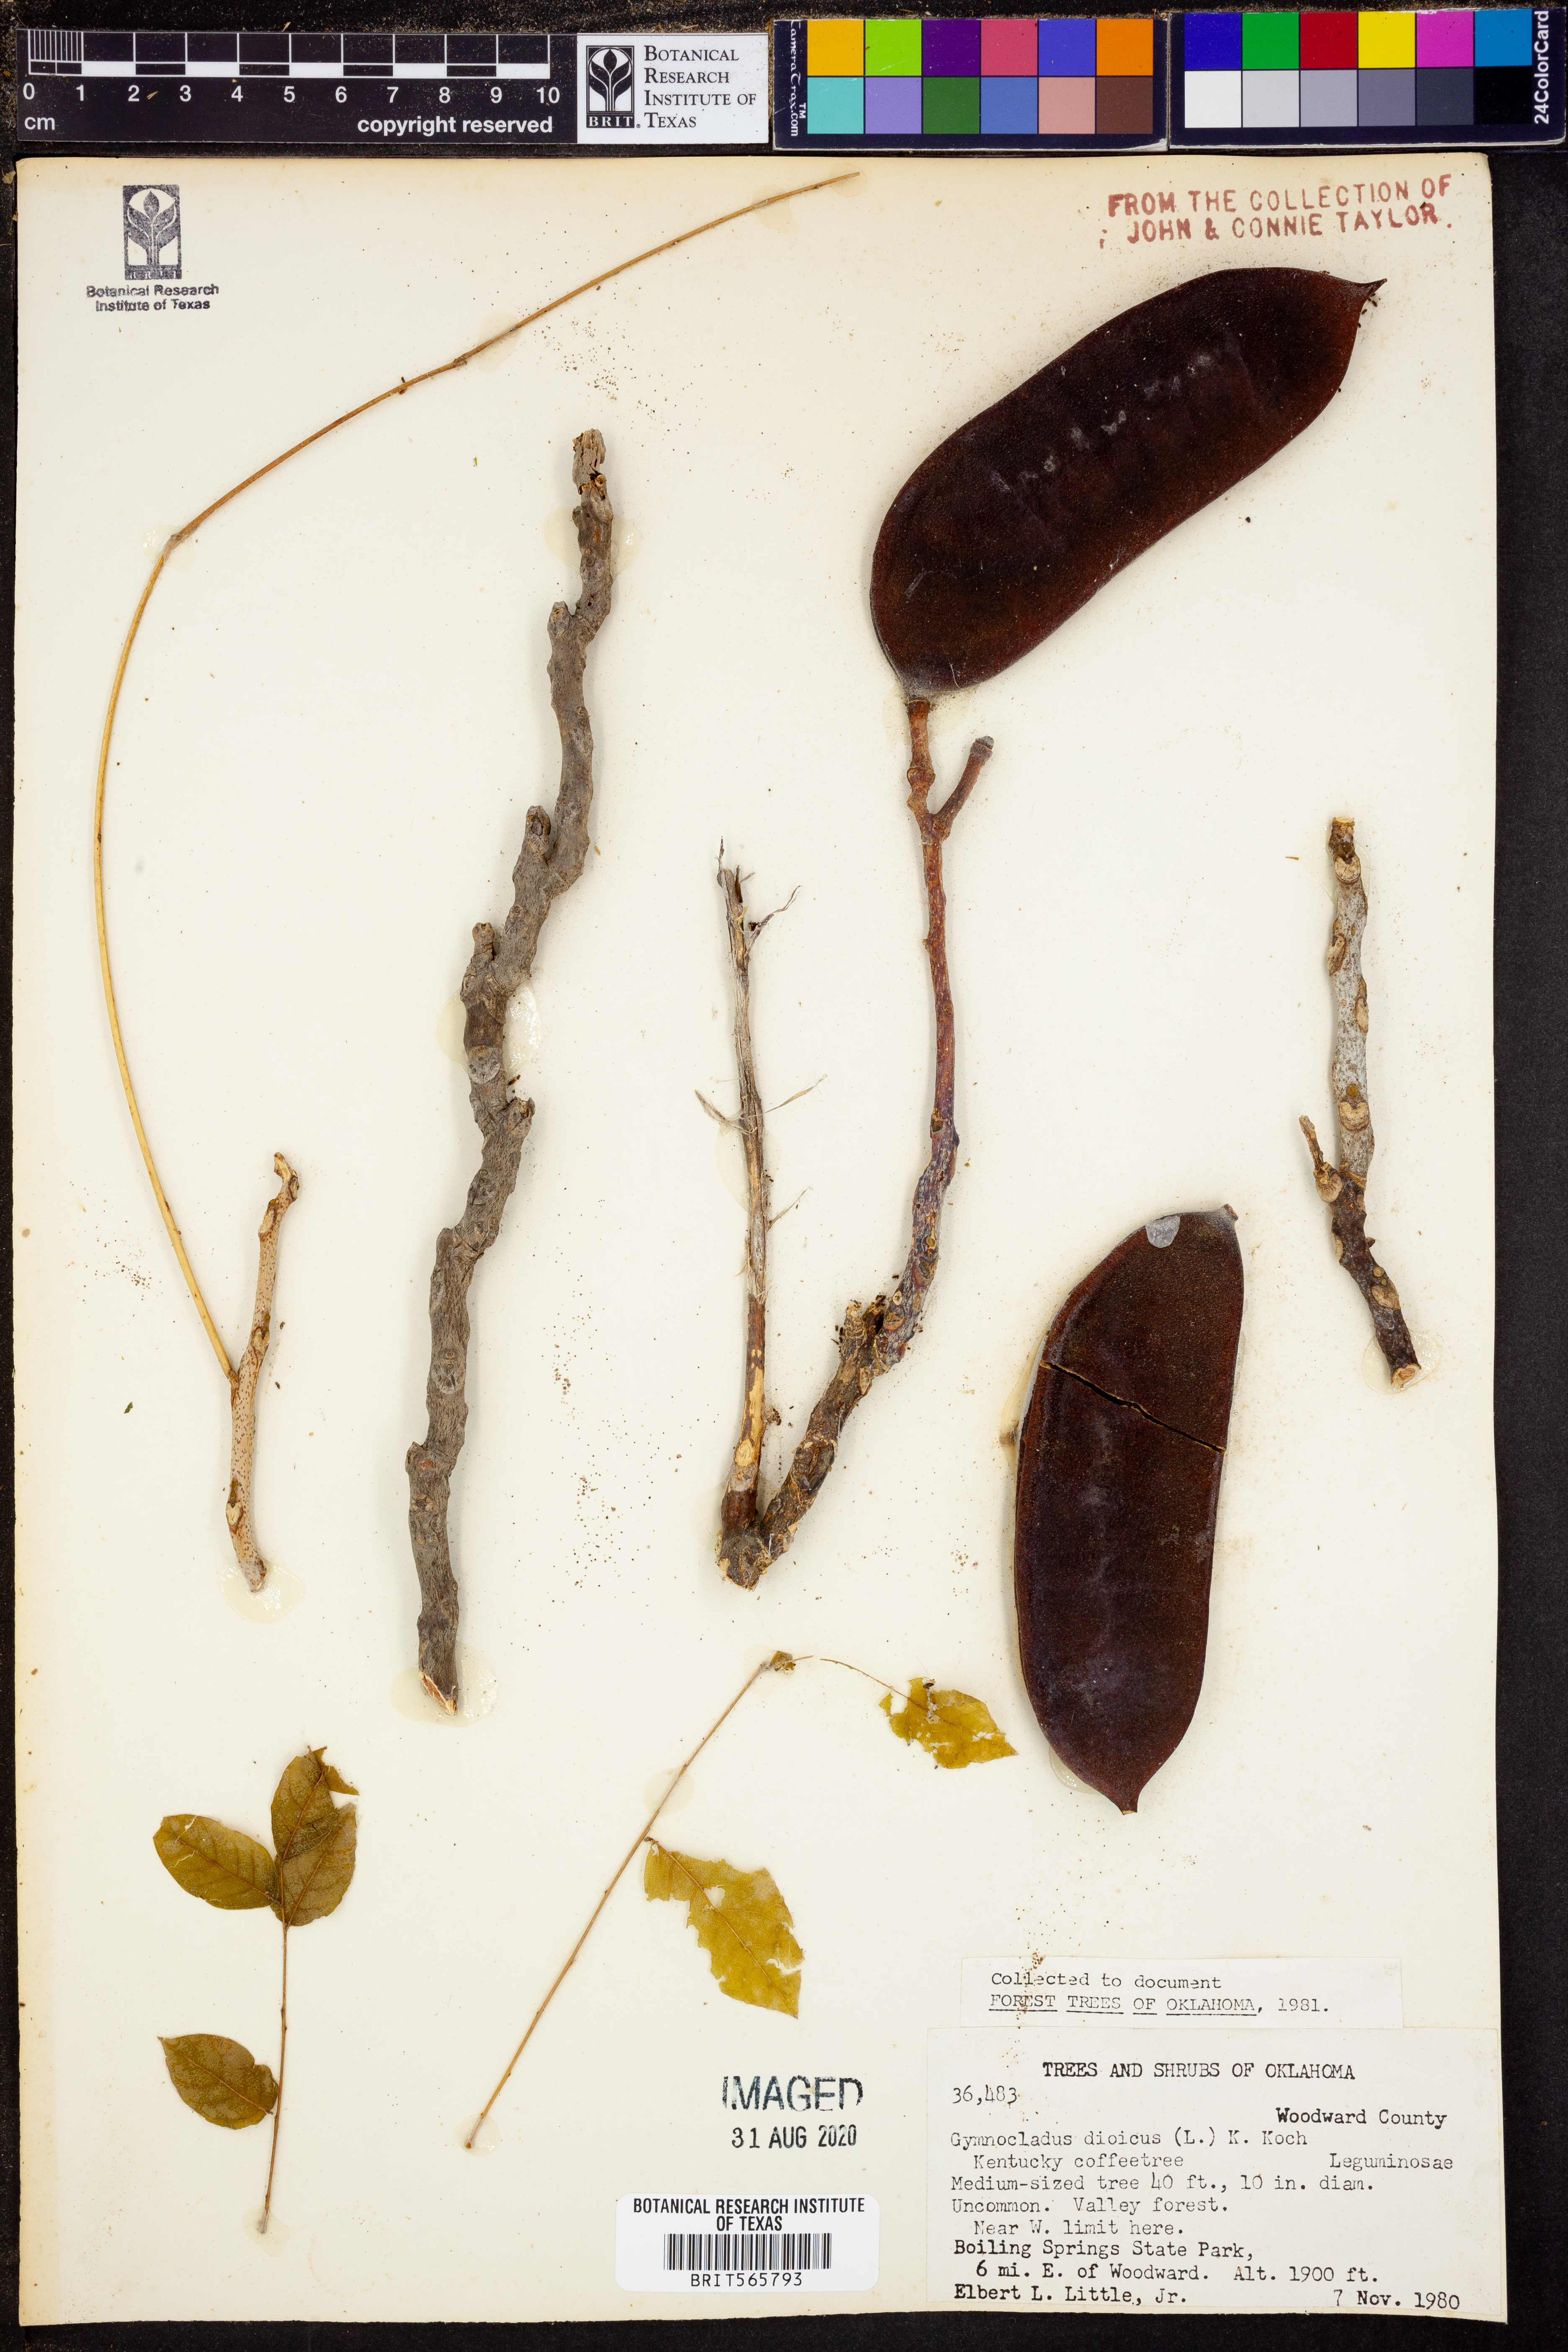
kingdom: Plantae
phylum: Tracheophyta
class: Magnoliopsida
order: Fabales
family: Fabaceae
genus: Gymnocladus
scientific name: Gymnocladus dioicus
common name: Kentucky coffee-tree
